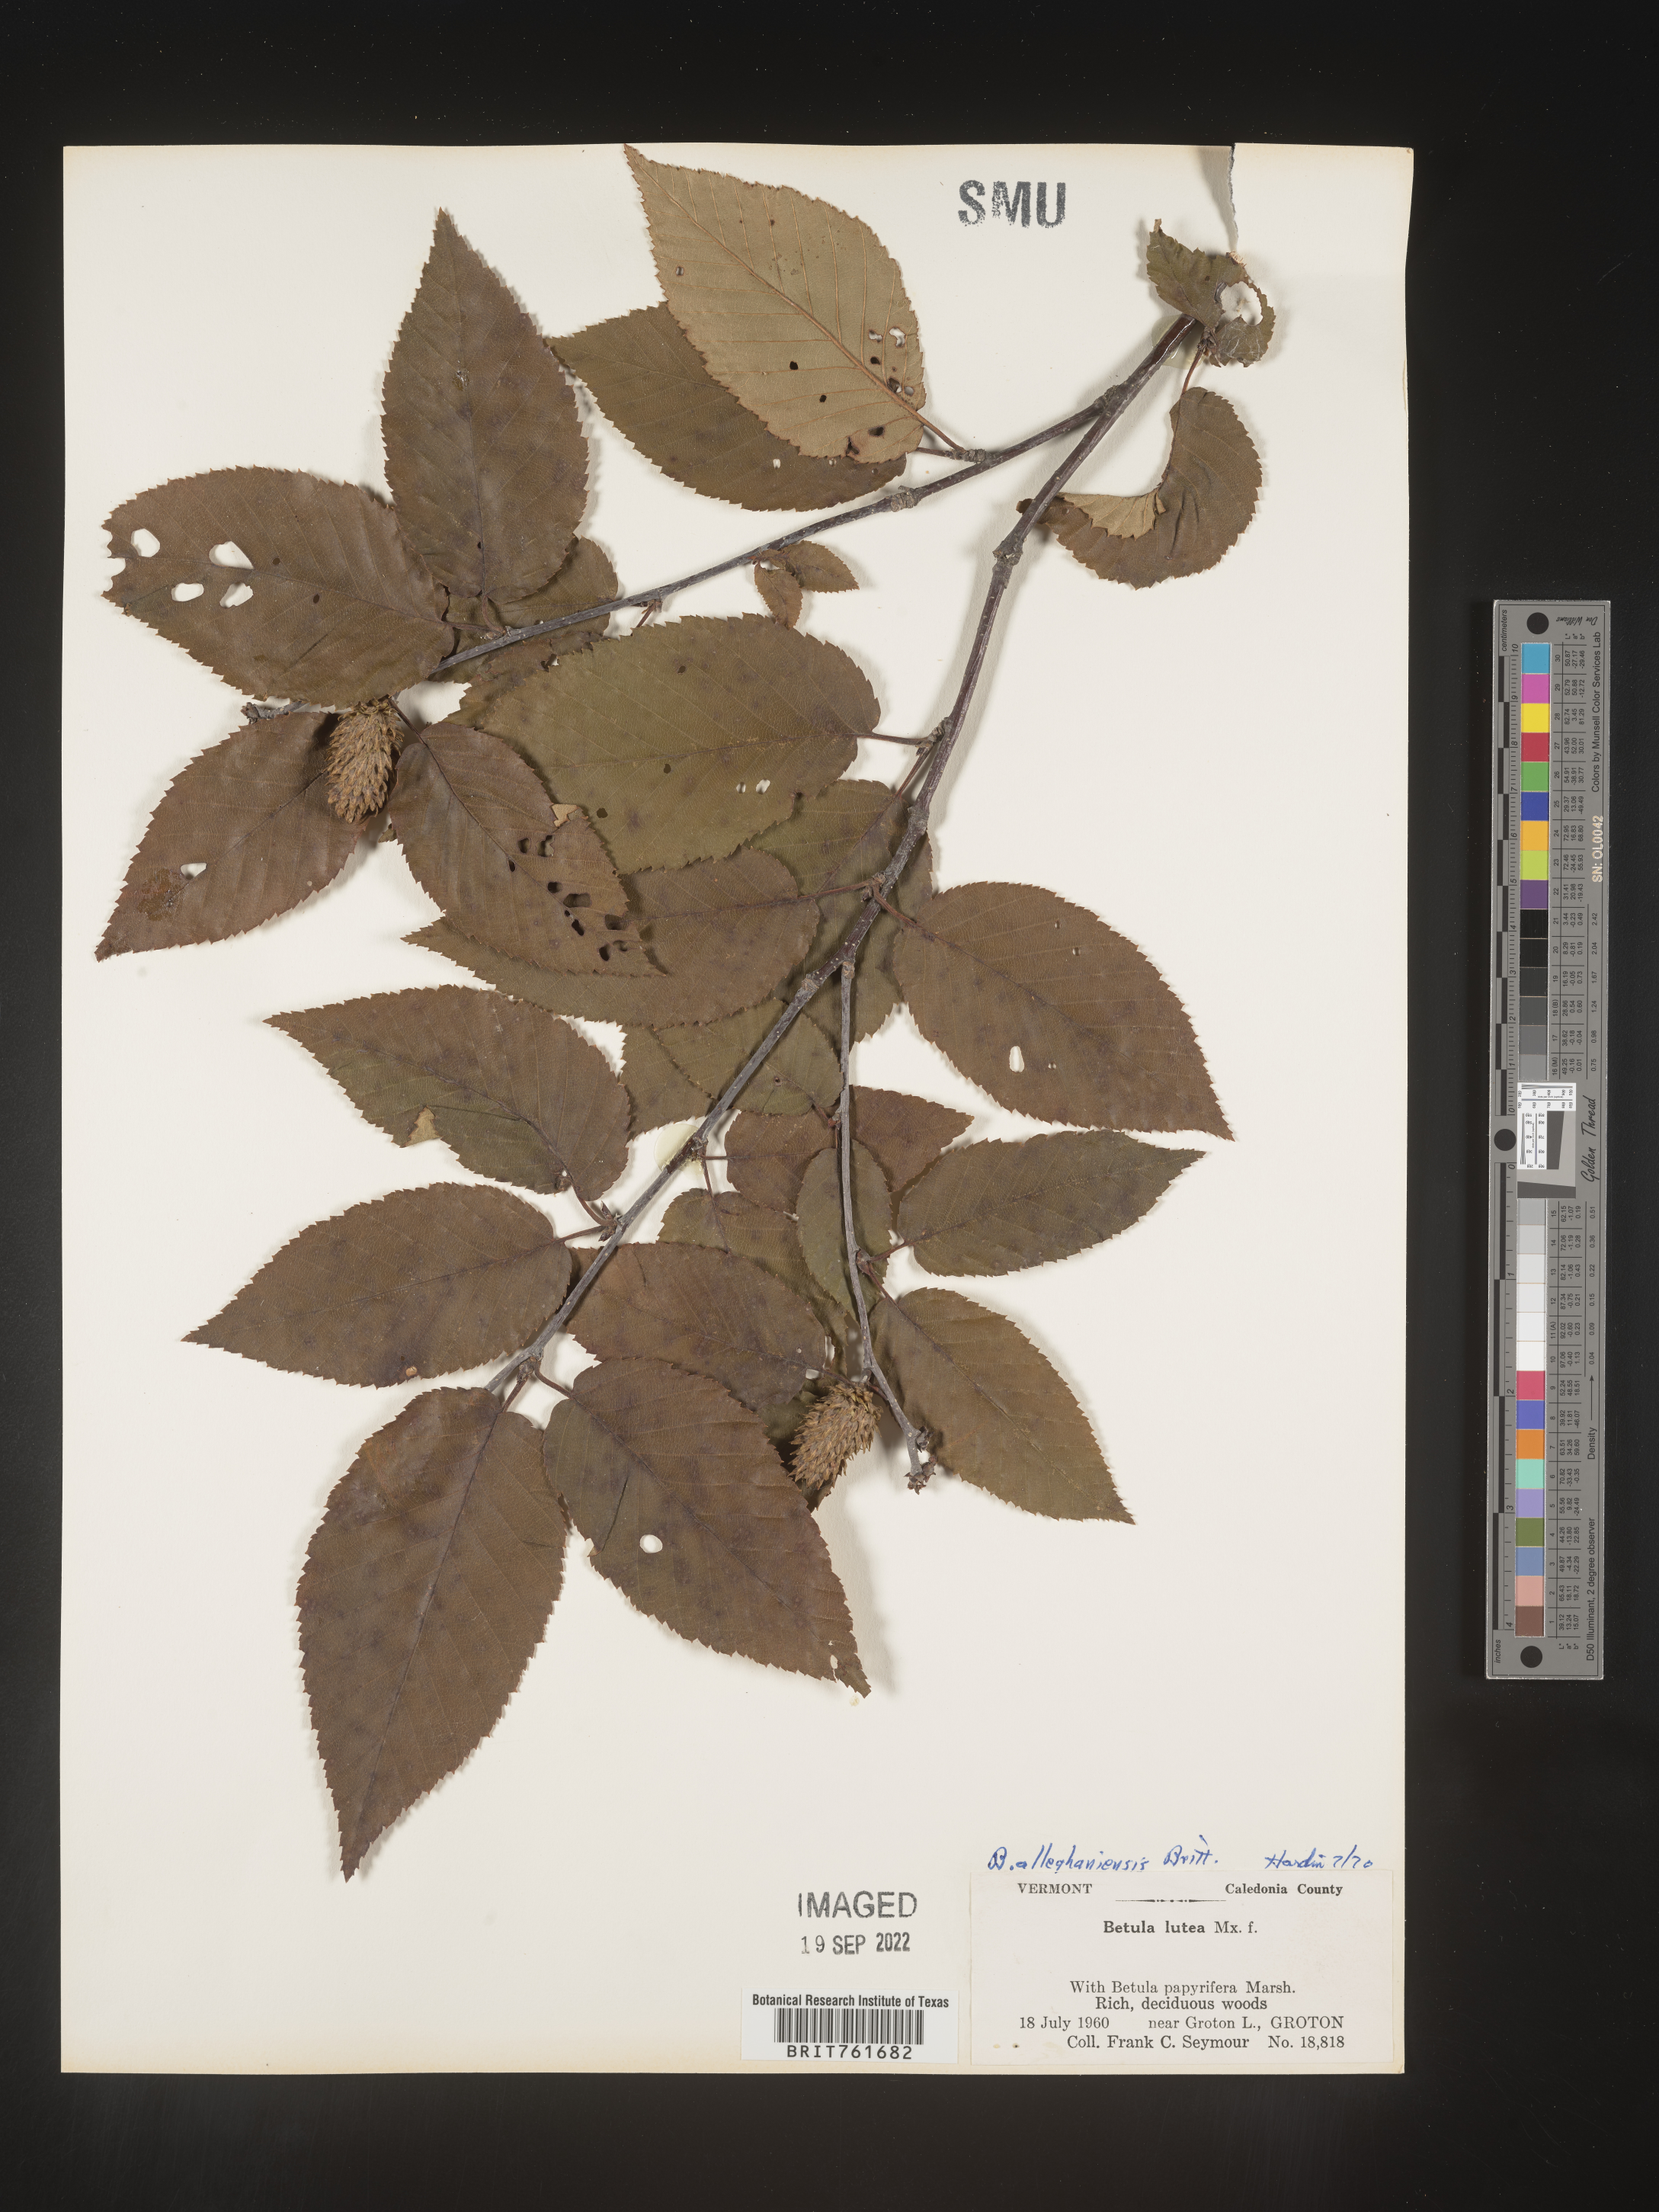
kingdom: Plantae
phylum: Tracheophyta
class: Magnoliopsida
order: Fagales
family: Betulaceae
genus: Betula
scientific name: Betula alleghaniensis
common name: Yellow birch
